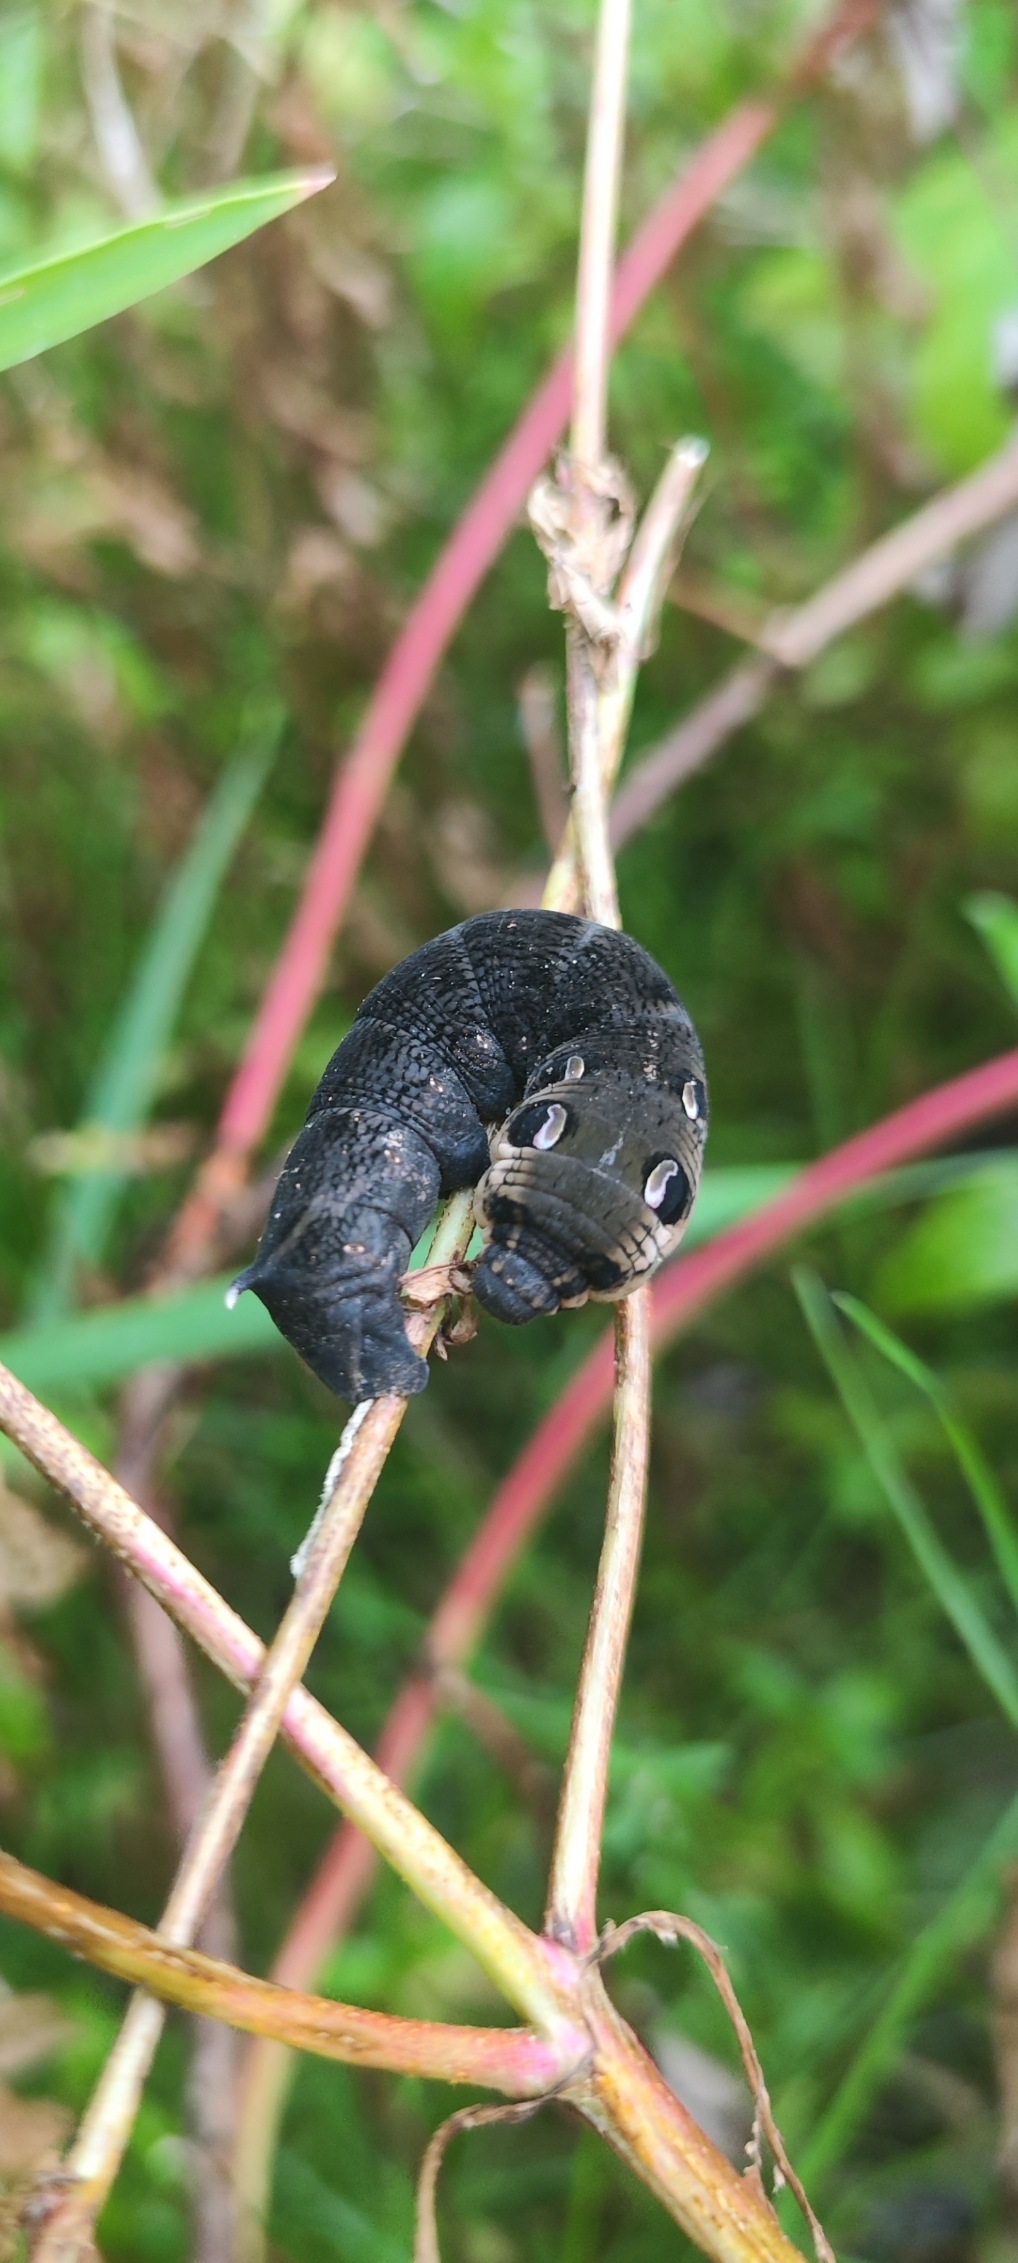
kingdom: Animalia
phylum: Arthropoda
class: Insecta
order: Lepidoptera
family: Sphingidae
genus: Deilephila
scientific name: Deilephila elpenor
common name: Dueurtsværmer
